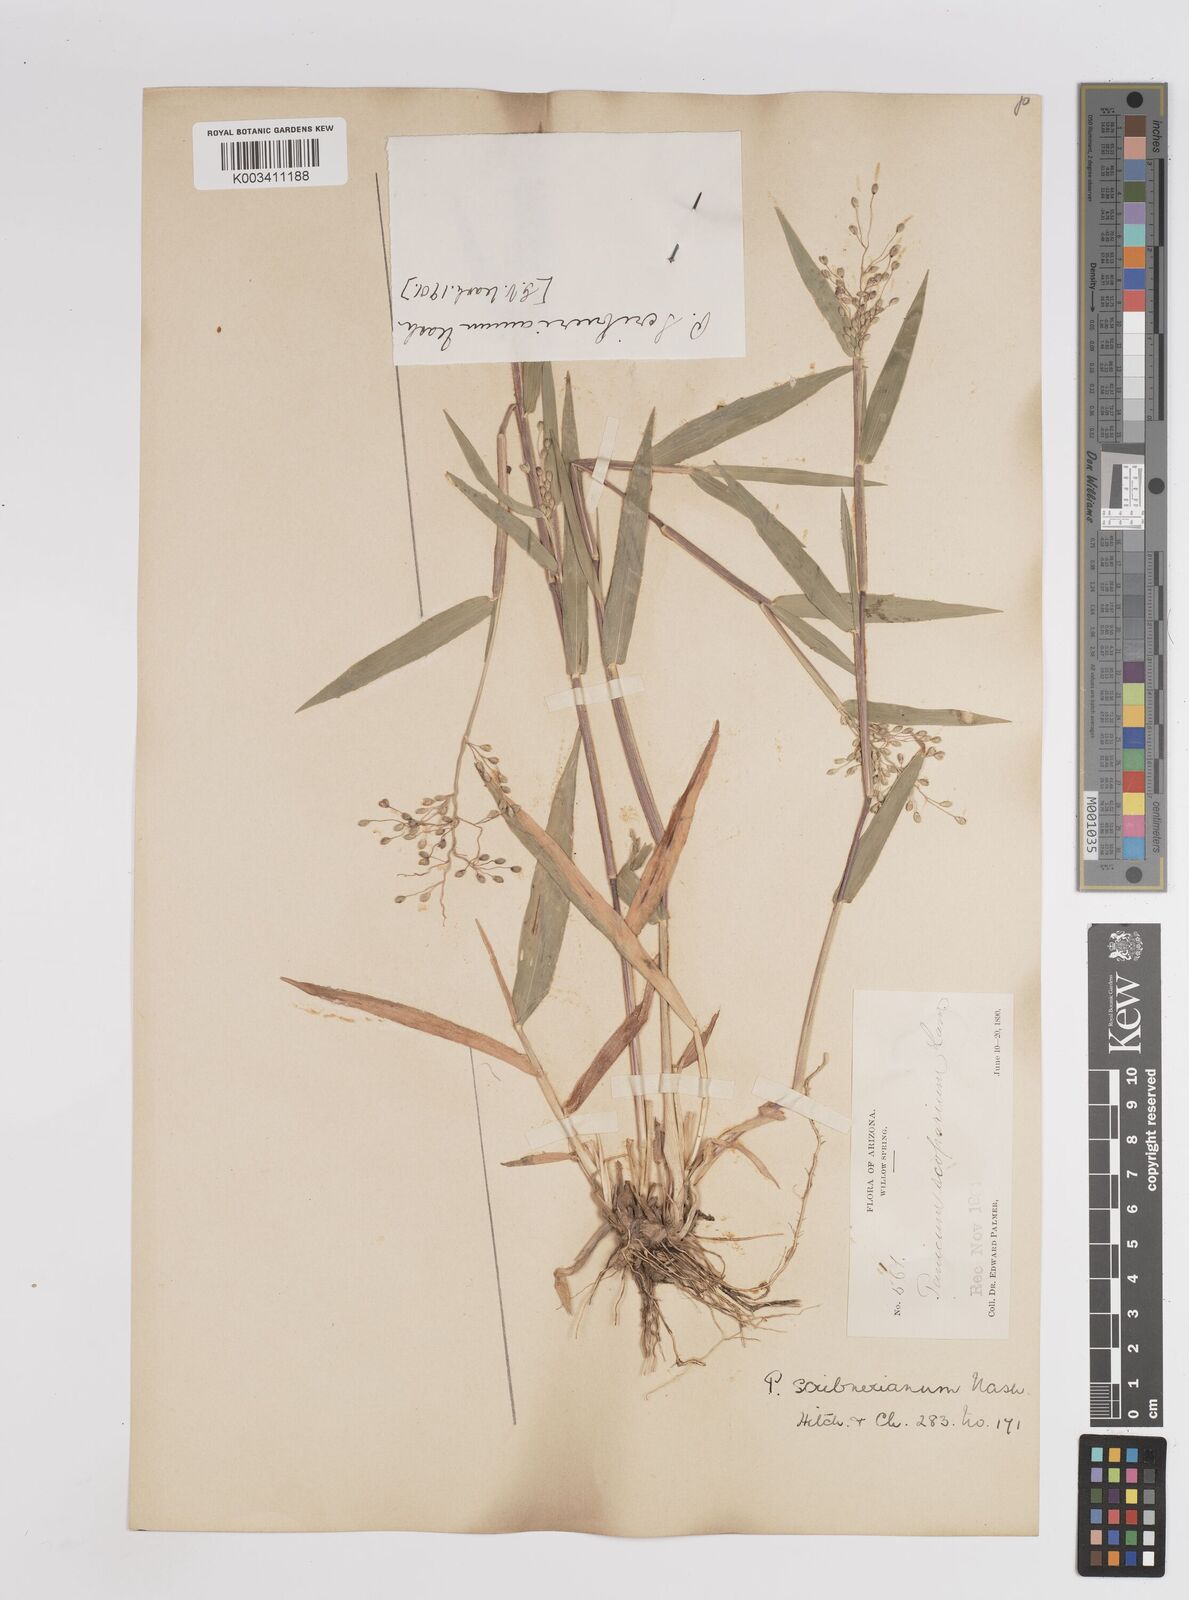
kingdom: Plantae
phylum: Tracheophyta
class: Liliopsida
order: Poales
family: Poaceae
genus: Dichanthelium
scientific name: Dichanthelium oligosanthes
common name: Few-anther obscuregrass
